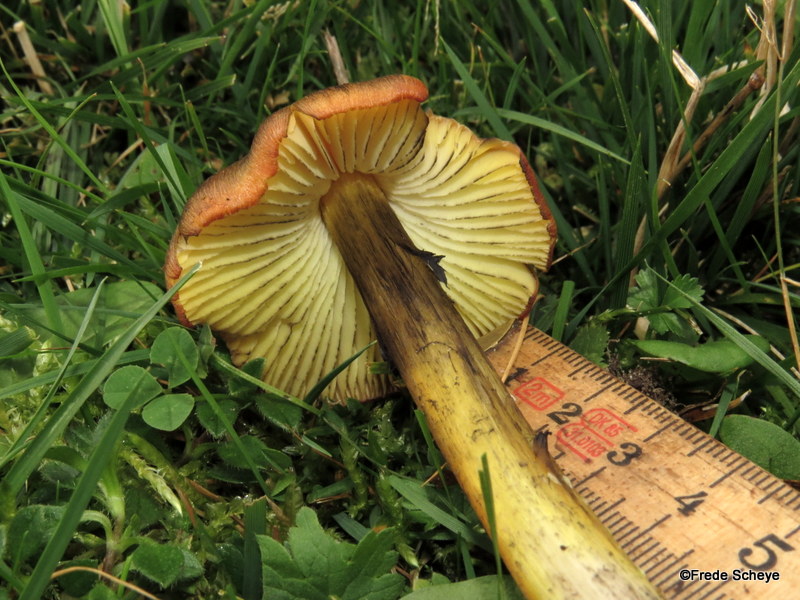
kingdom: Fungi
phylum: Basidiomycota
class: Agaricomycetes
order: Agaricales
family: Hygrophoraceae
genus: Hygrocybe
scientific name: Hygrocybe conica
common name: kegle-vokshat
